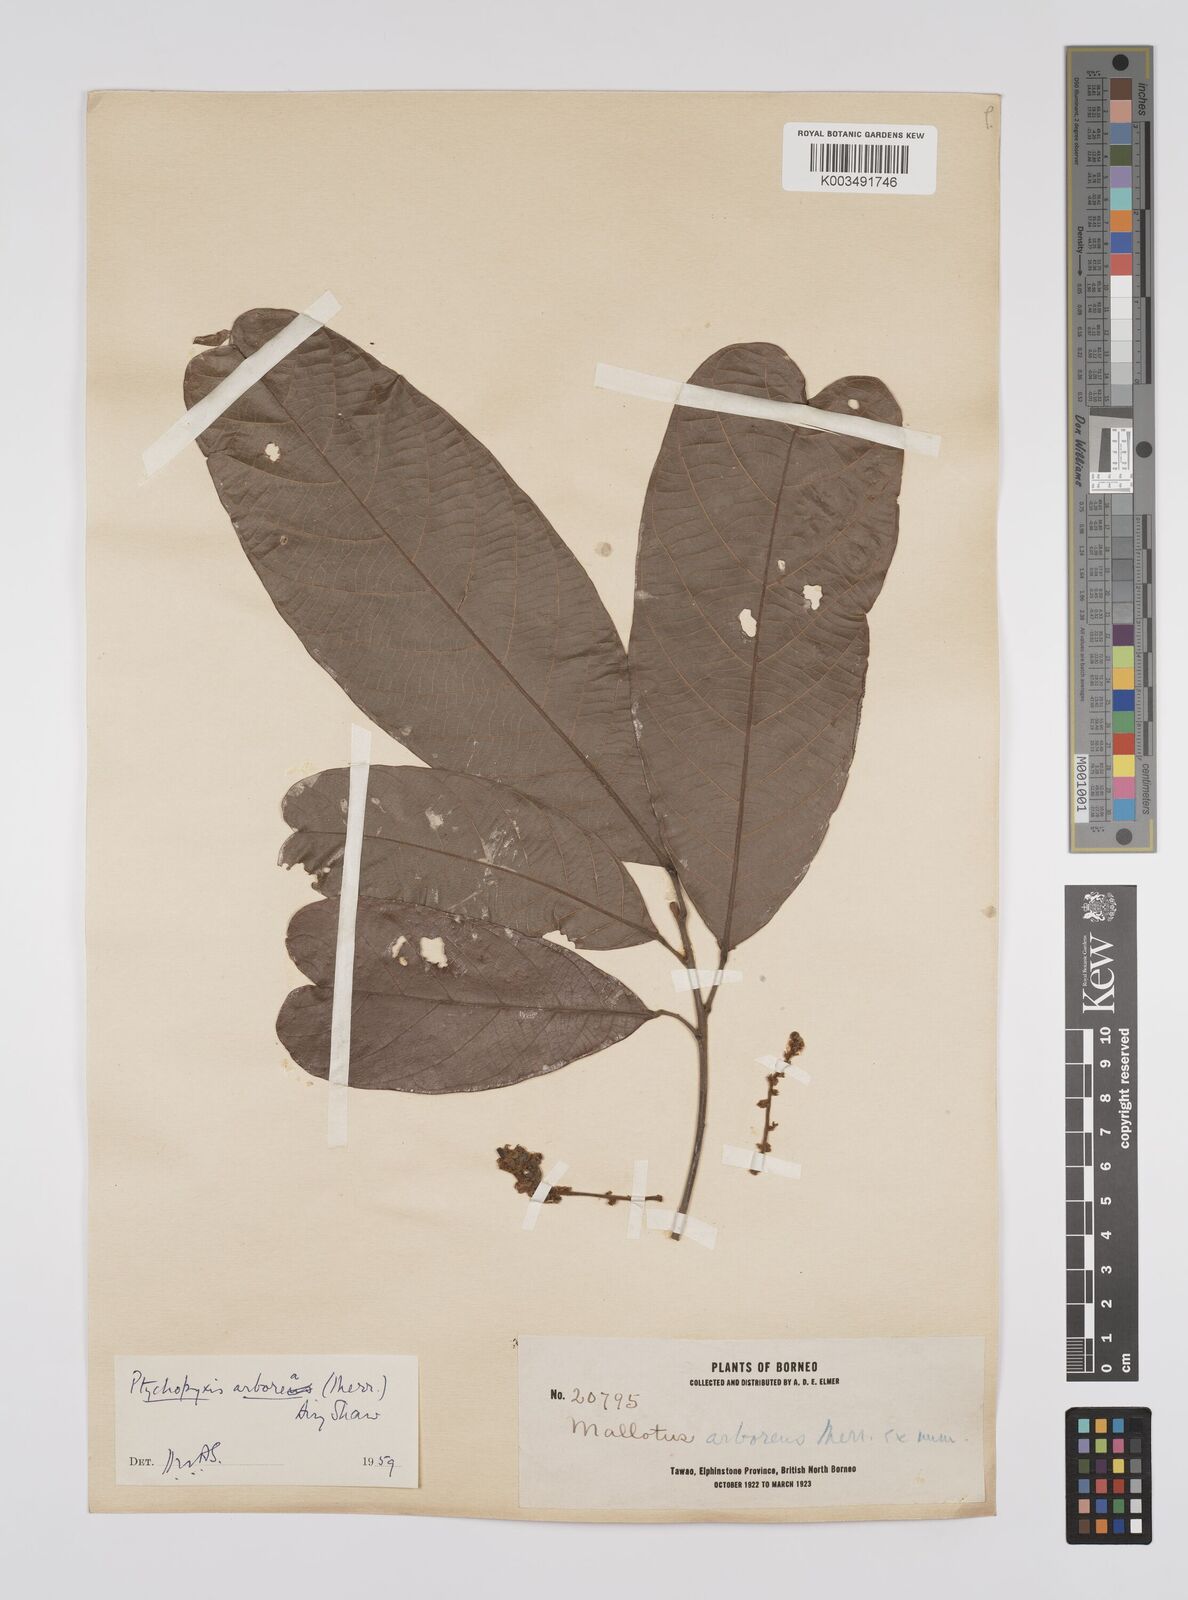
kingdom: Plantae
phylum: Tracheophyta
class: Magnoliopsida
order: Malpighiales
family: Euphorbiaceae
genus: Ptychopyxis
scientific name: Ptychopyxis arborea
